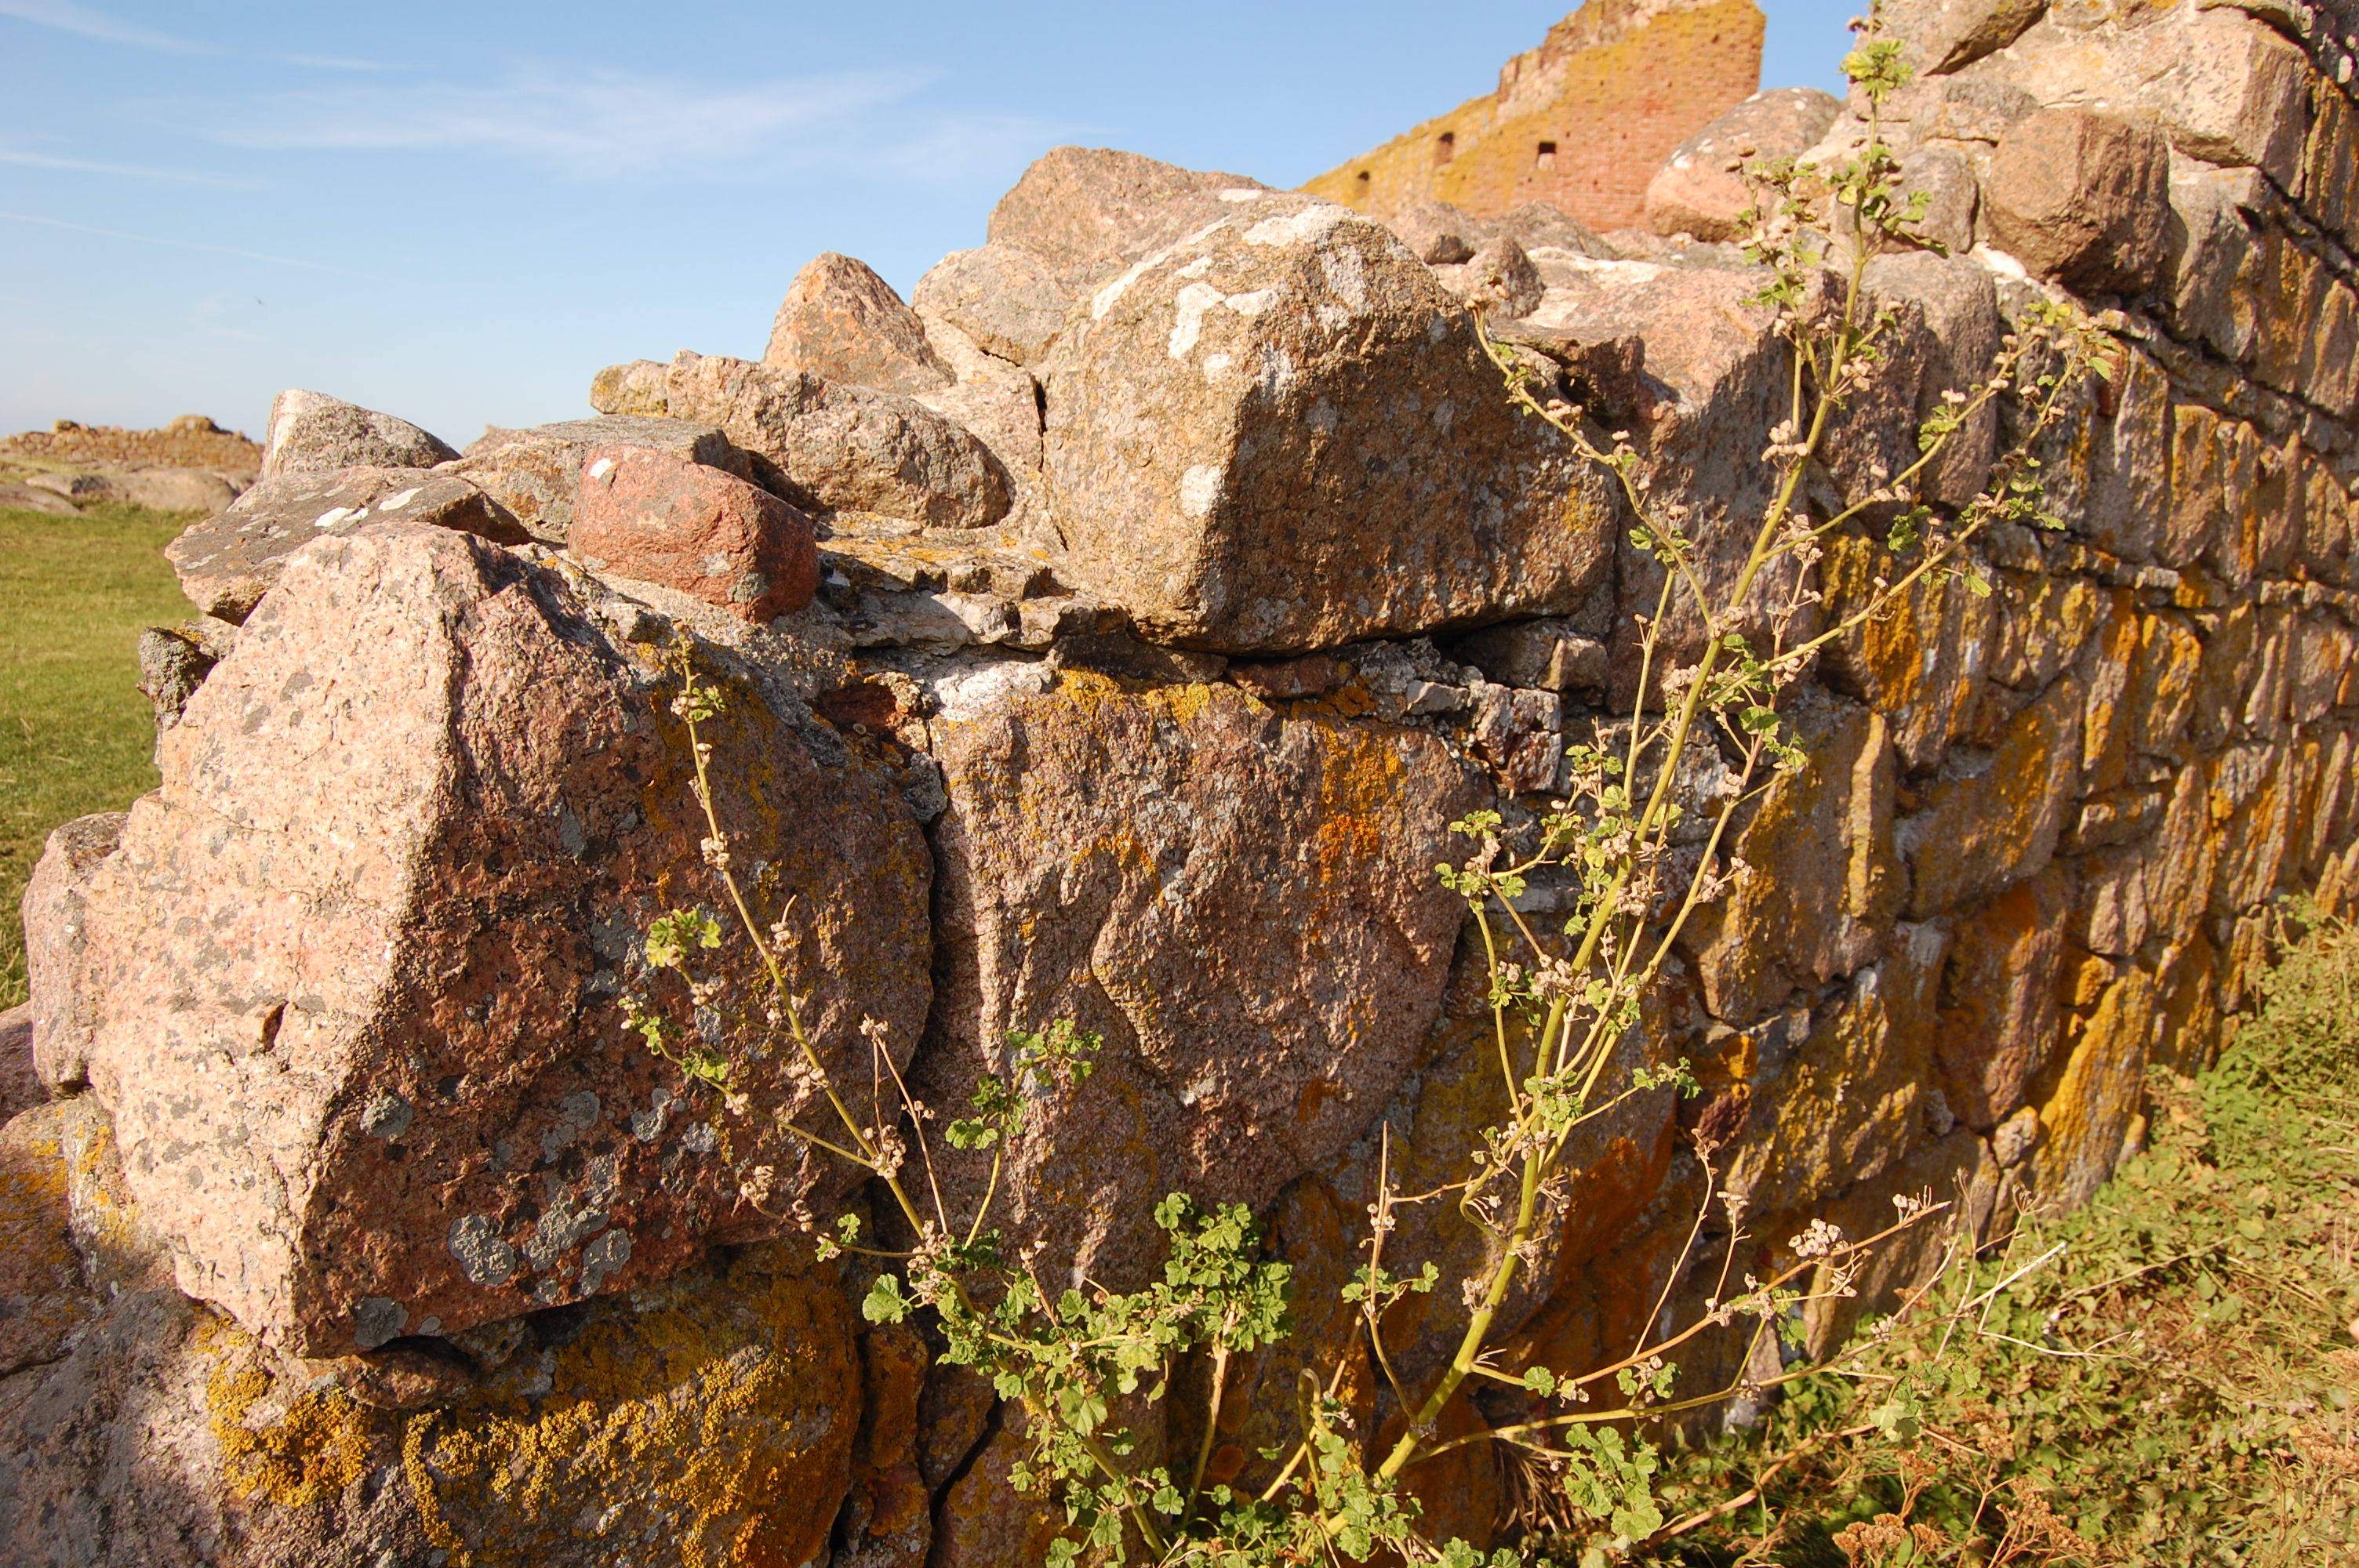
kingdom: Plantae
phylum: Tracheophyta
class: Magnoliopsida
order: Malvales
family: Malvaceae
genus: Malva
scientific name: Malva sylvestris
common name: Common mallow
